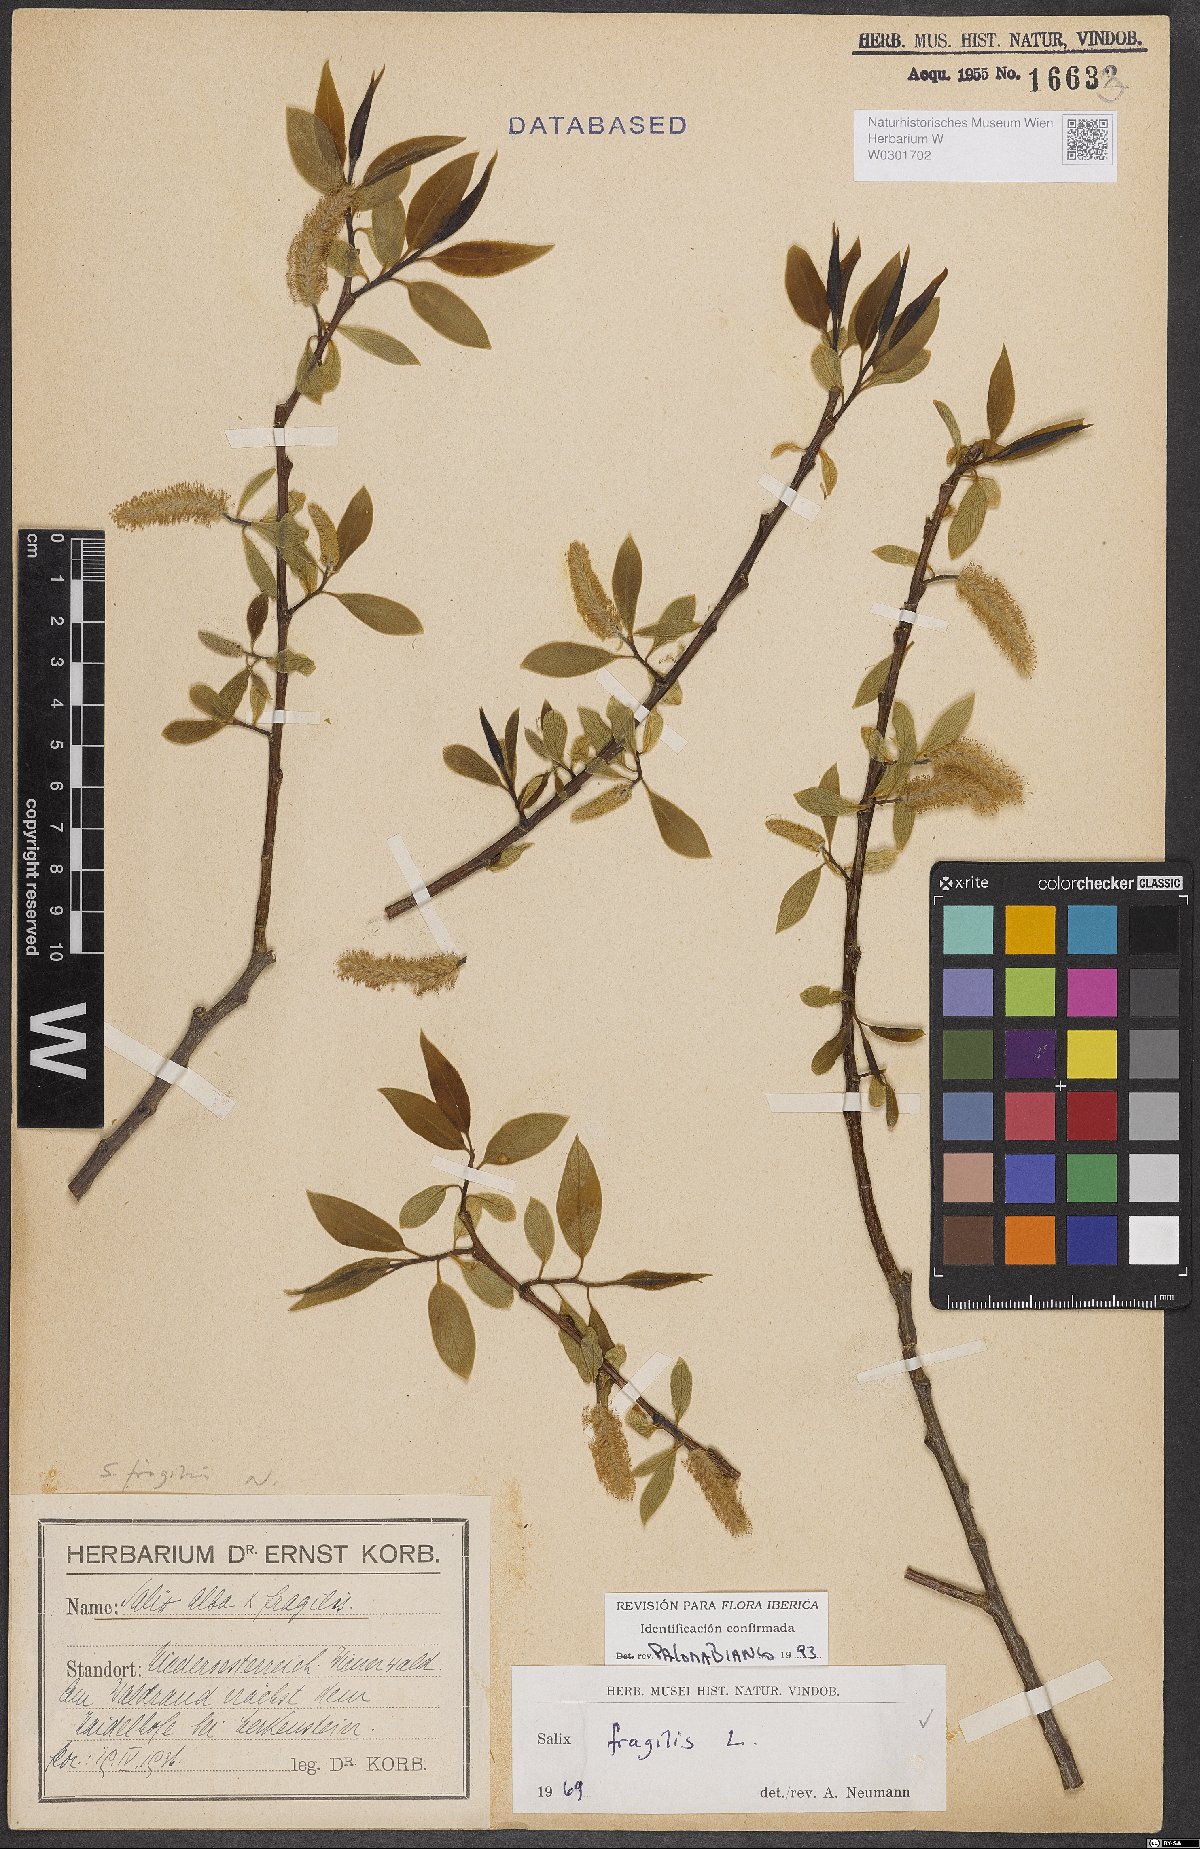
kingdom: Plantae
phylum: Tracheophyta
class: Magnoliopsida
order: Malpighiales
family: Salicaceae
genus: Salix
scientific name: Salix fragilis
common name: Crack willow
